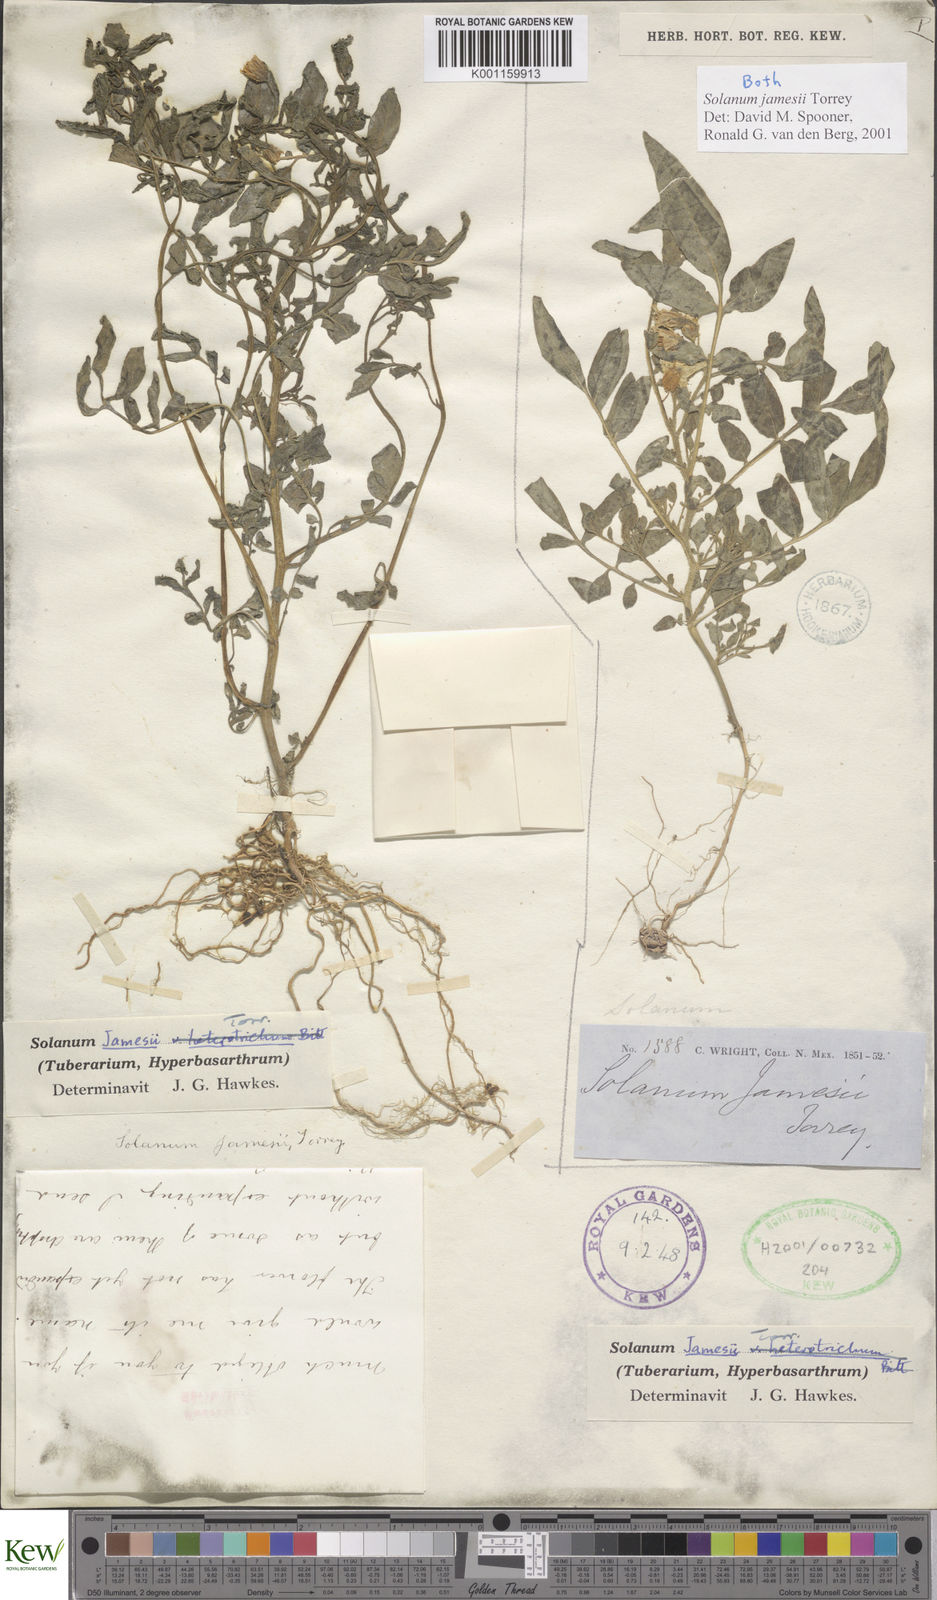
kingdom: Plantae
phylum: Tracheophyta
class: Magnoliopsida
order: Solanales
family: Solanaceae
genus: Solanum
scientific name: Solanum jamesii
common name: Wild potato
